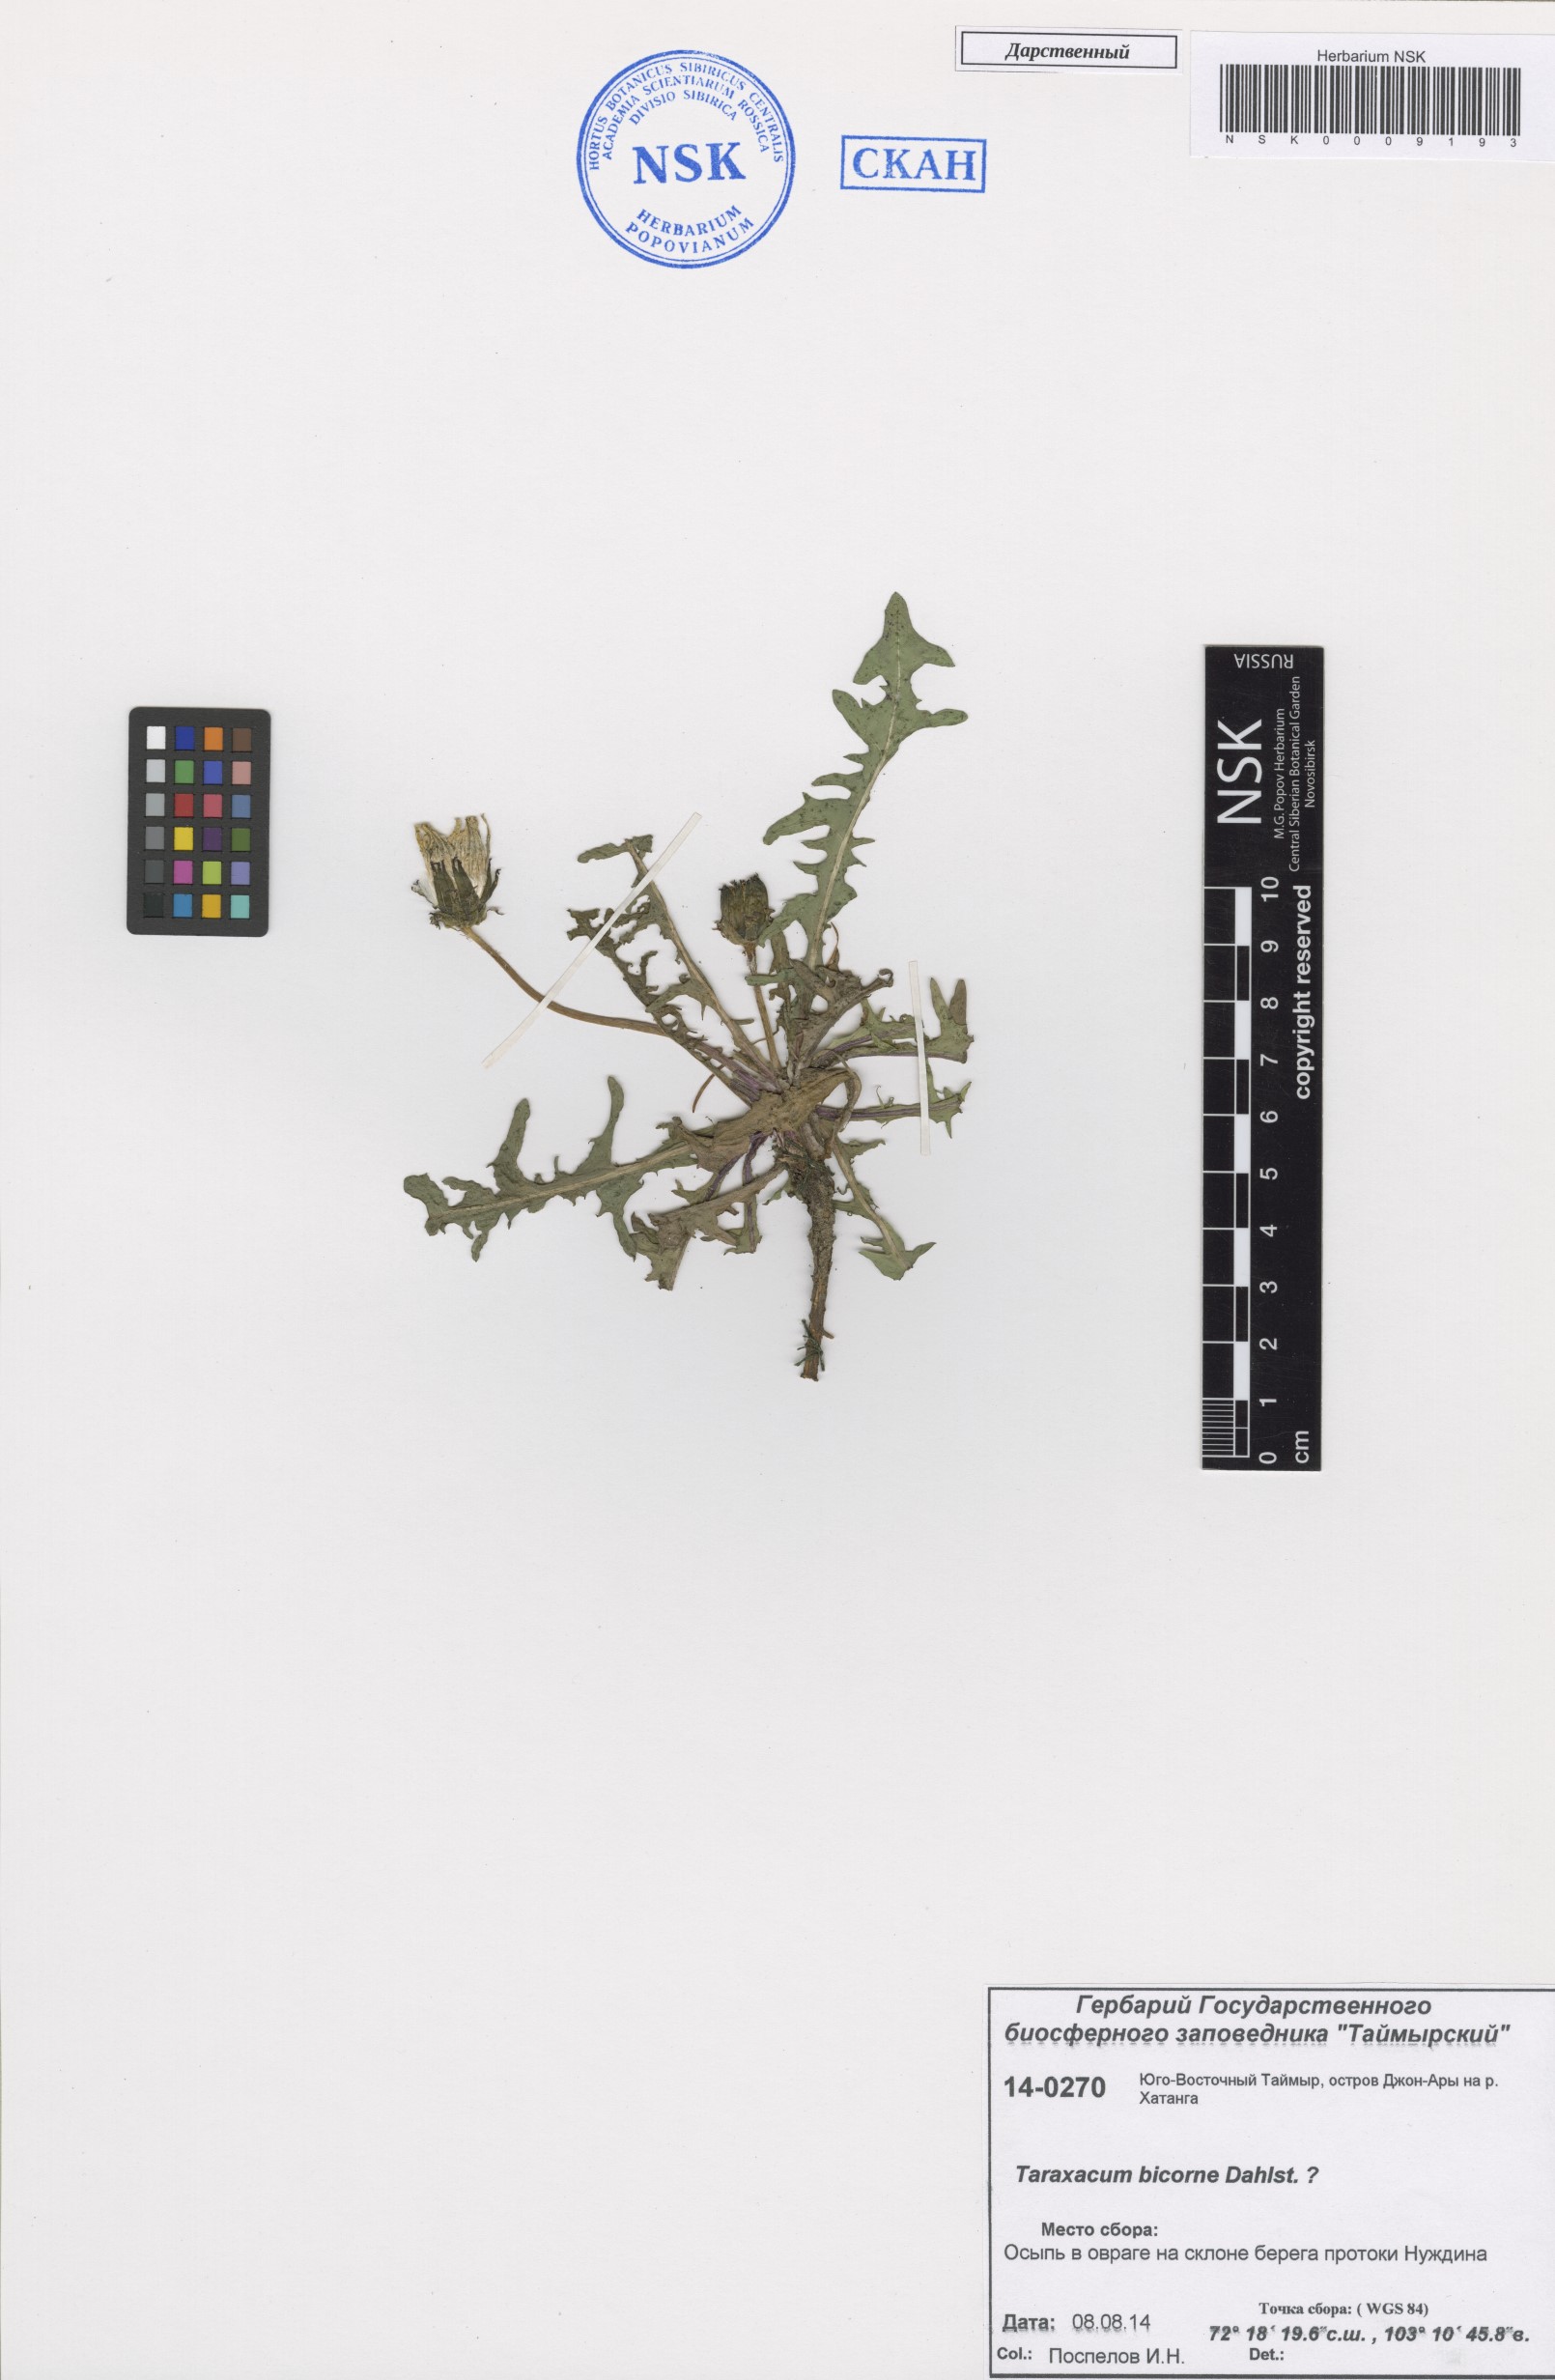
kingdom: Plantae
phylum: Tracheophyta
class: Magnoliopsida
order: Asterales
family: Asteraceae
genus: Taraxacum
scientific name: Taraxacum bicorne
